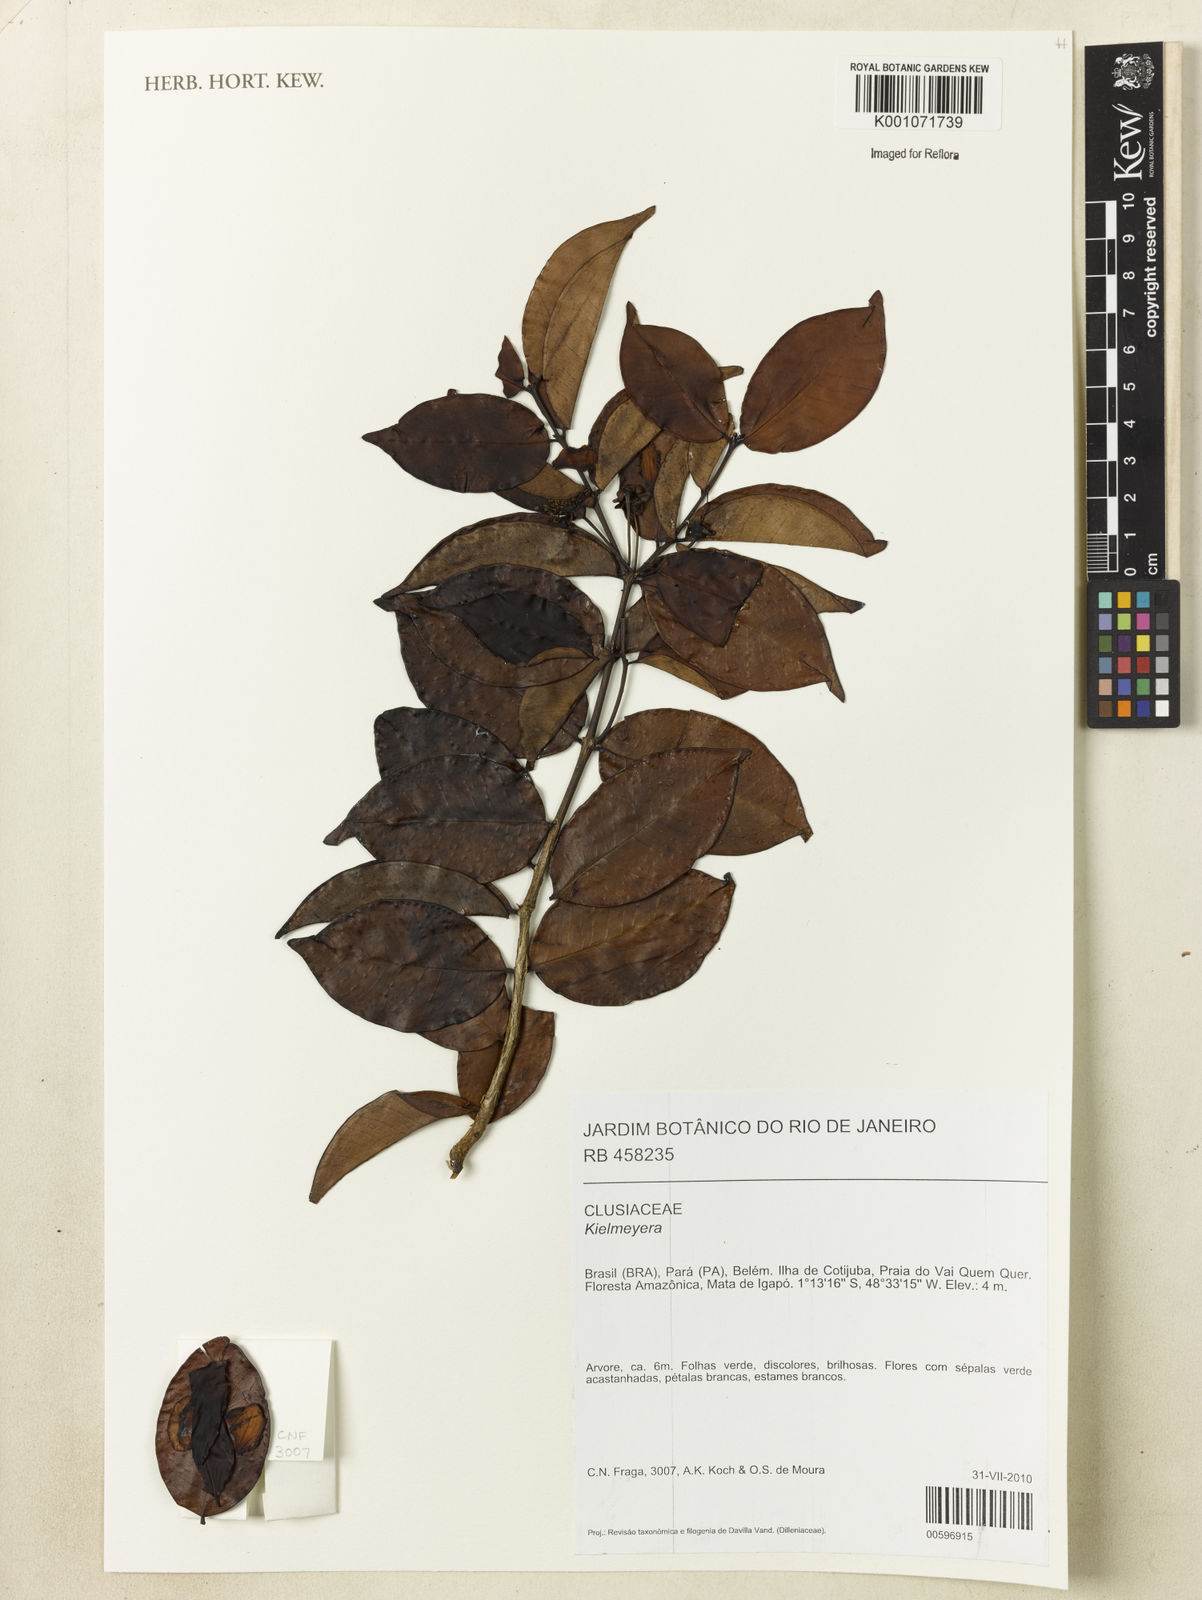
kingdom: Plantae
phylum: Tracheophyta
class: Magnoliopsida
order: Myrtales
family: Myrtaceae
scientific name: Myrtaceae
